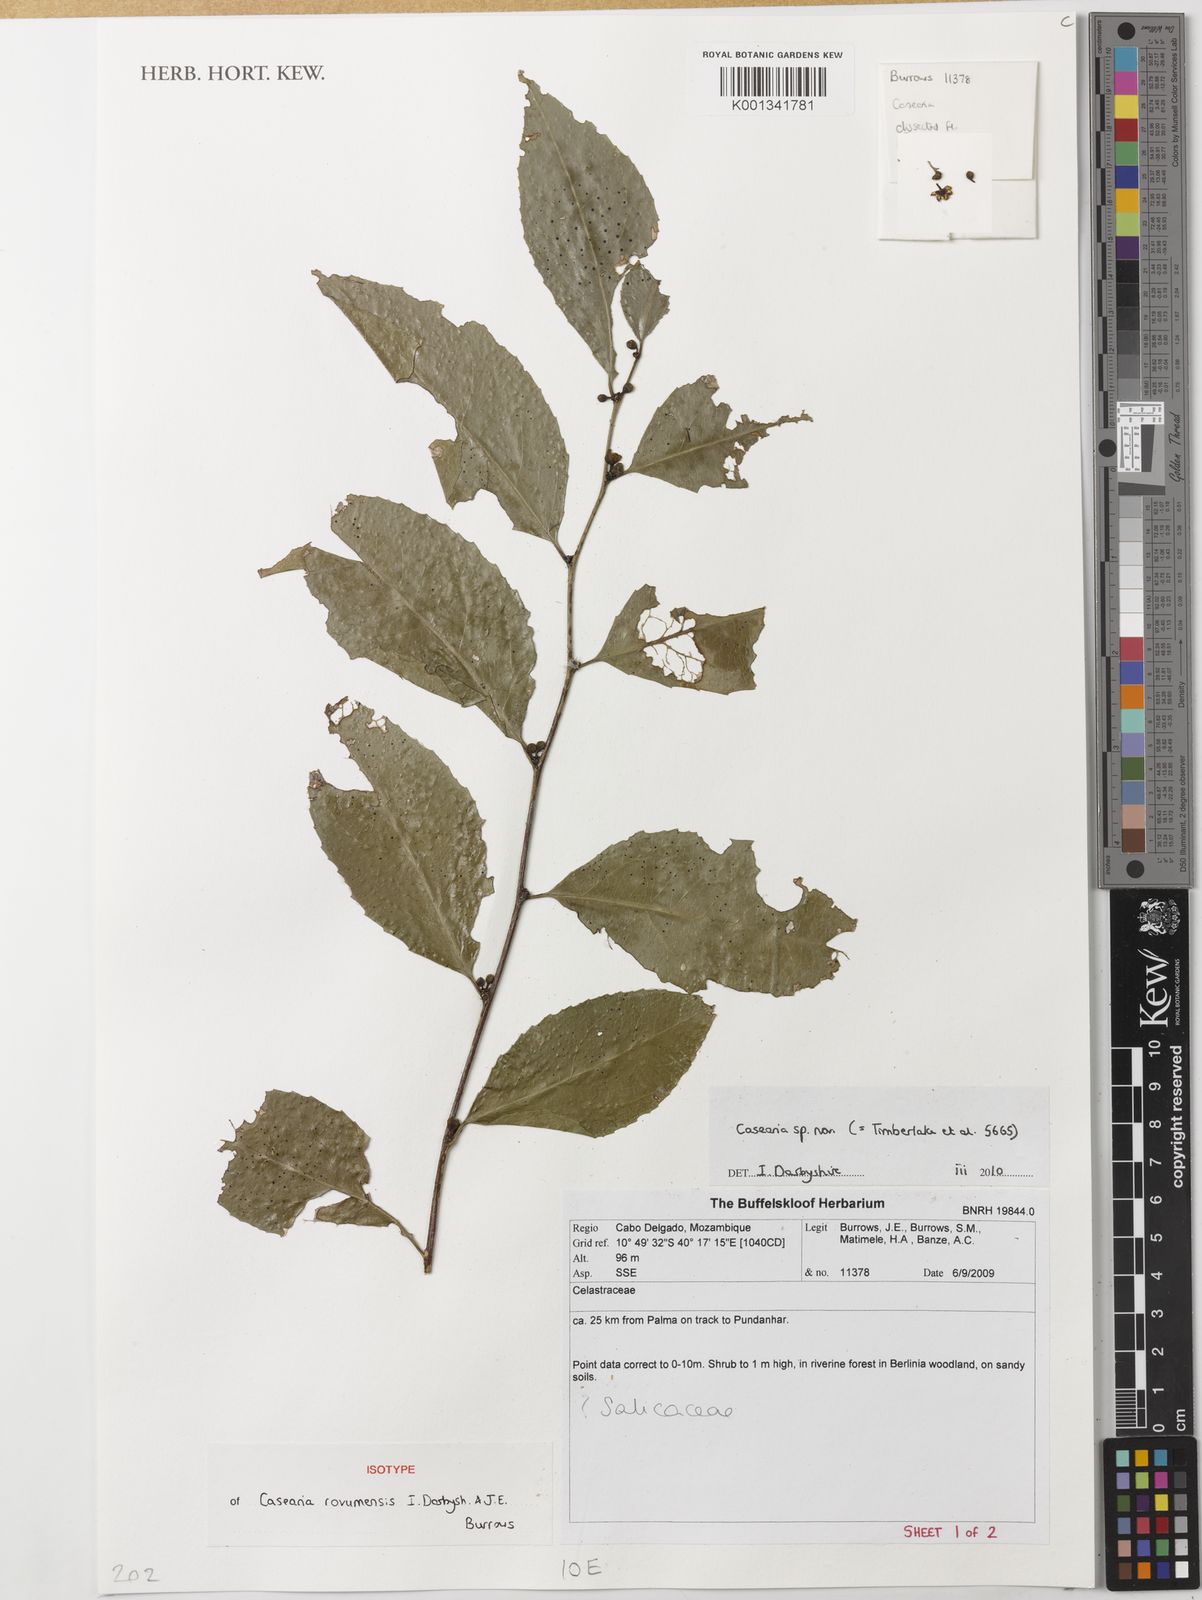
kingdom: Plantae
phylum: Tracheophyta
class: Magnoliopsida
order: Malpighiales
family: Salicaceae
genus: Casearia
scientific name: Casearia
